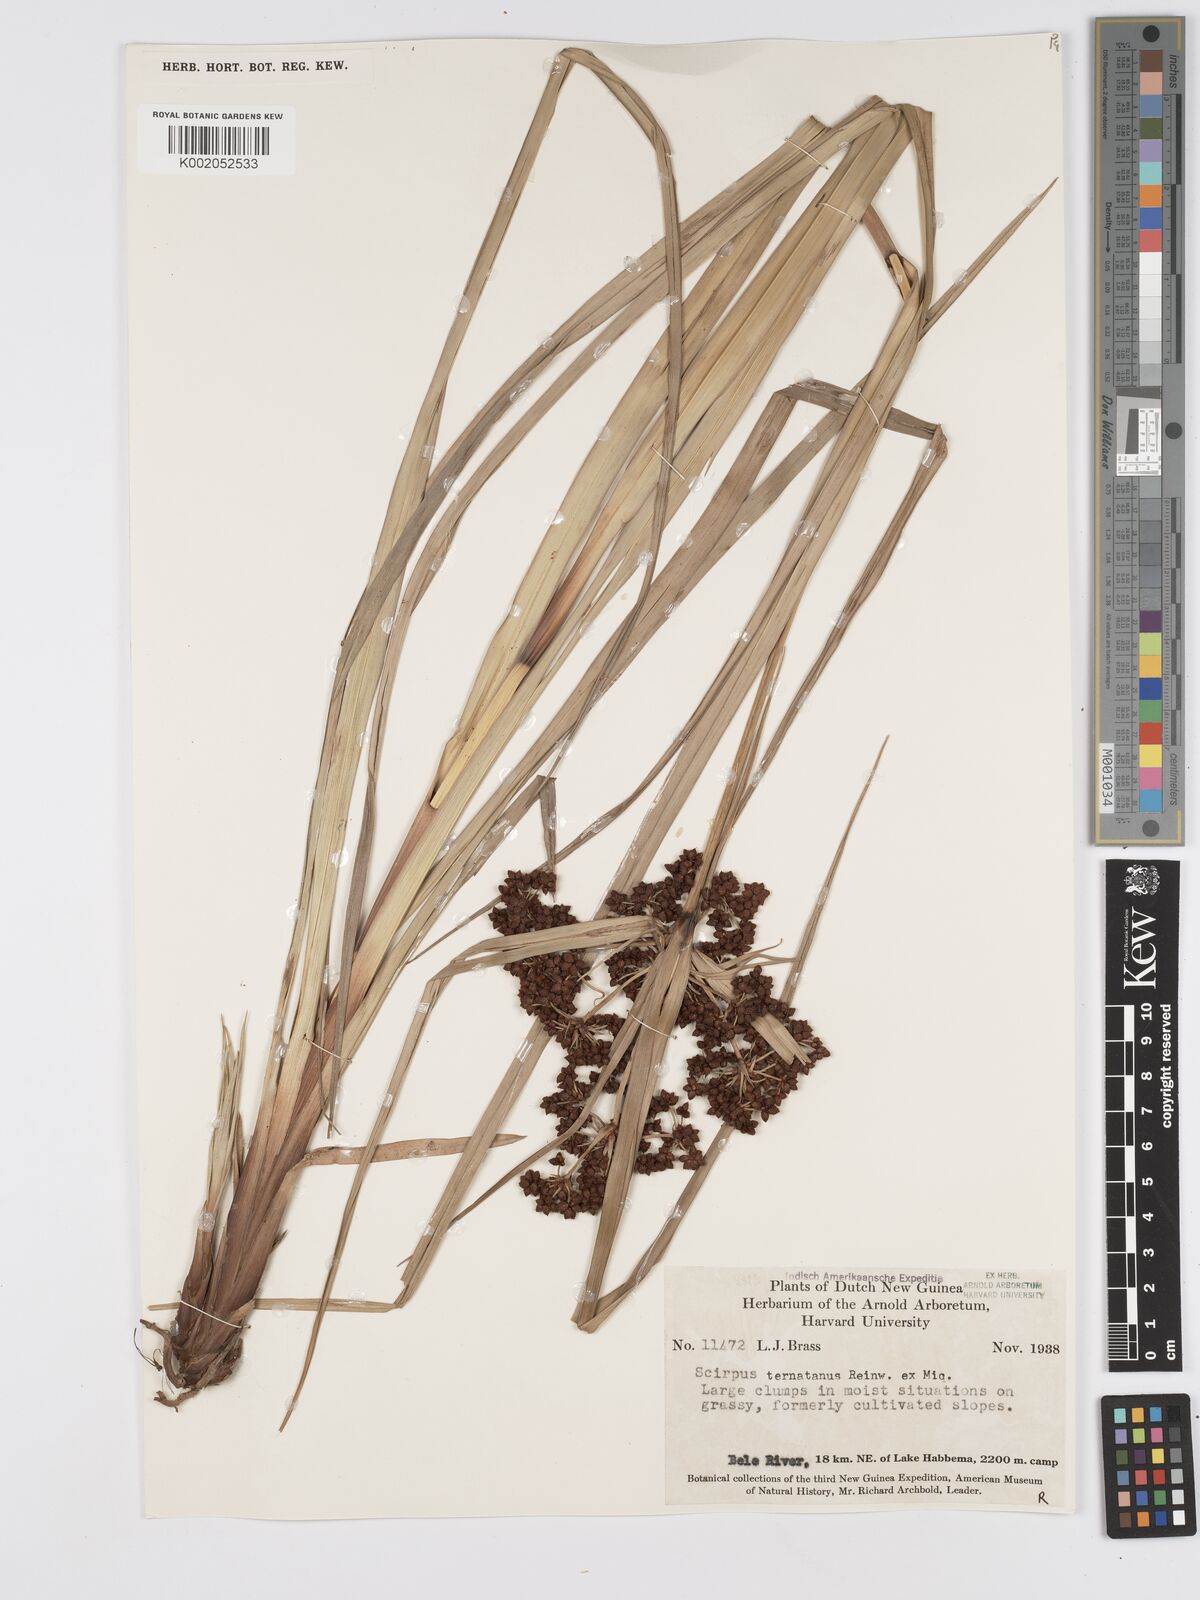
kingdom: Plantae
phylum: Tracheophyta
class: Liliopsida
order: Poales
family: Cyperaceae
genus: Scirpus
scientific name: Scirpus ternatanus
